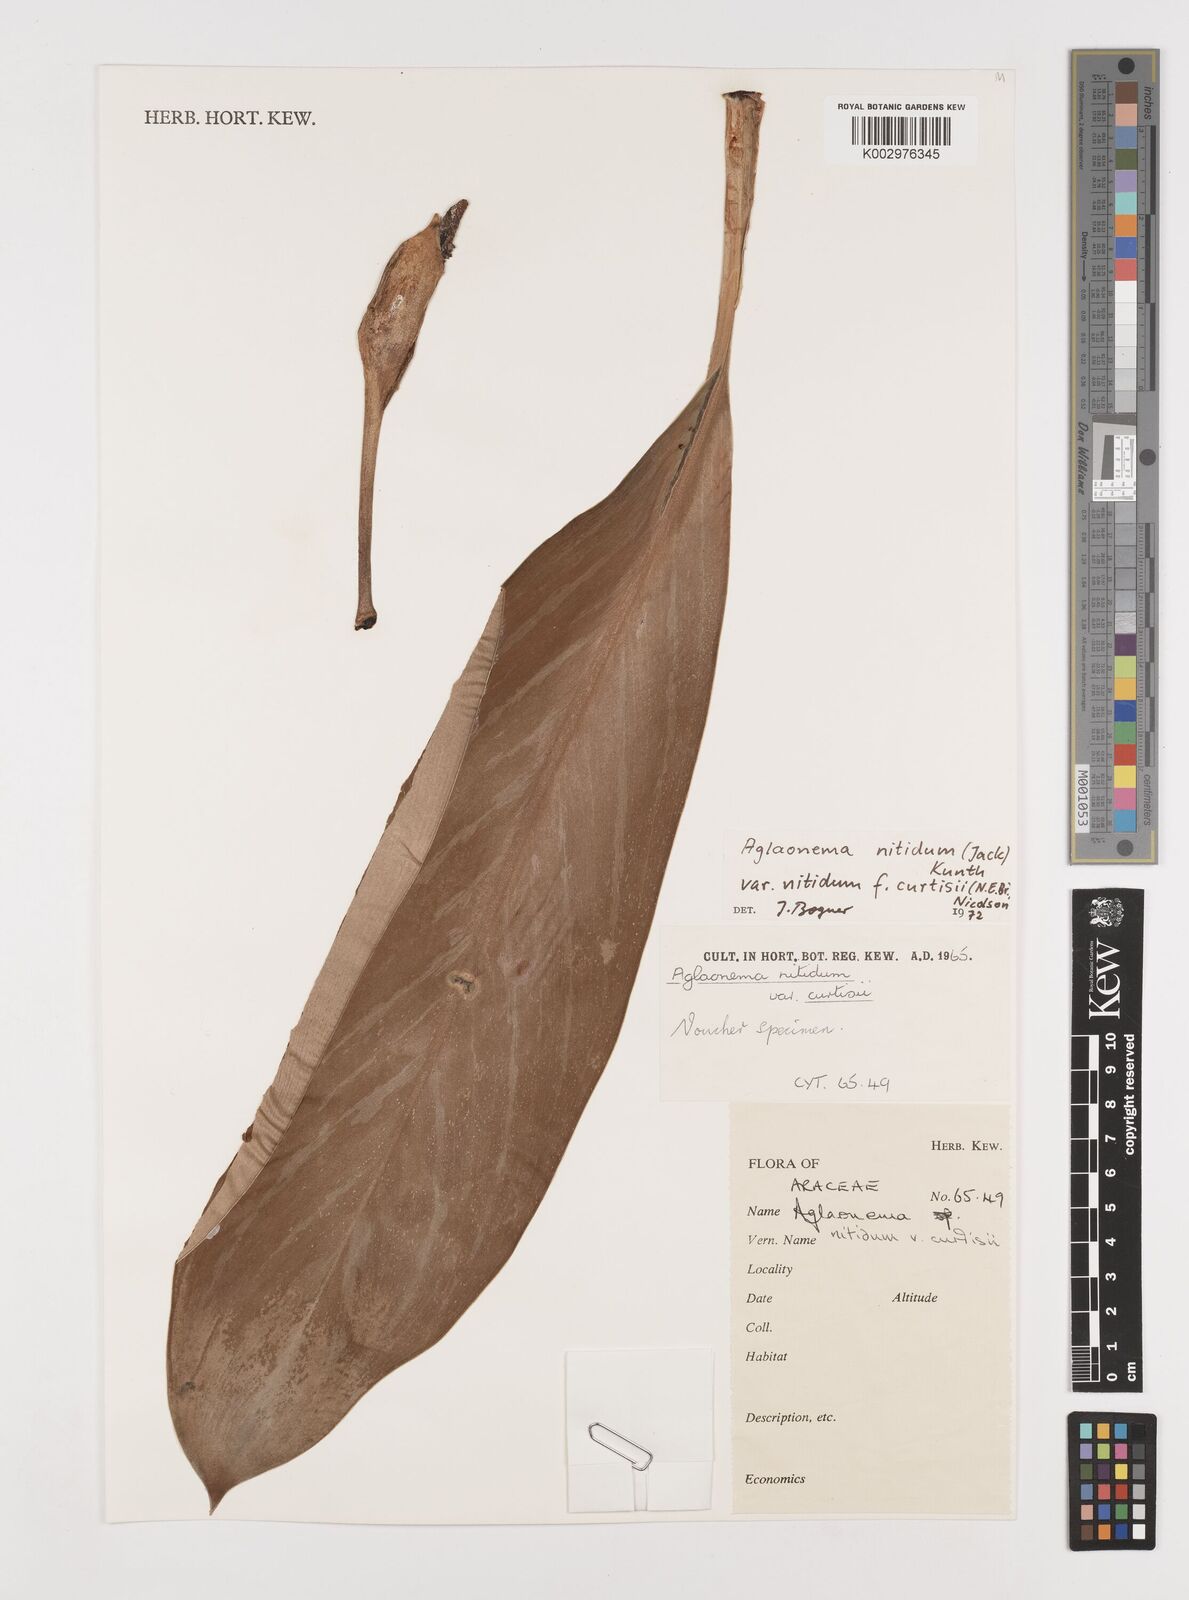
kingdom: Plantae
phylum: Tracheophyta
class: Liliopsida
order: Alismatales
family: Araceae
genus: Aglaonema
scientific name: Aglaonema nitidum
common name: Aglaonema aroid
